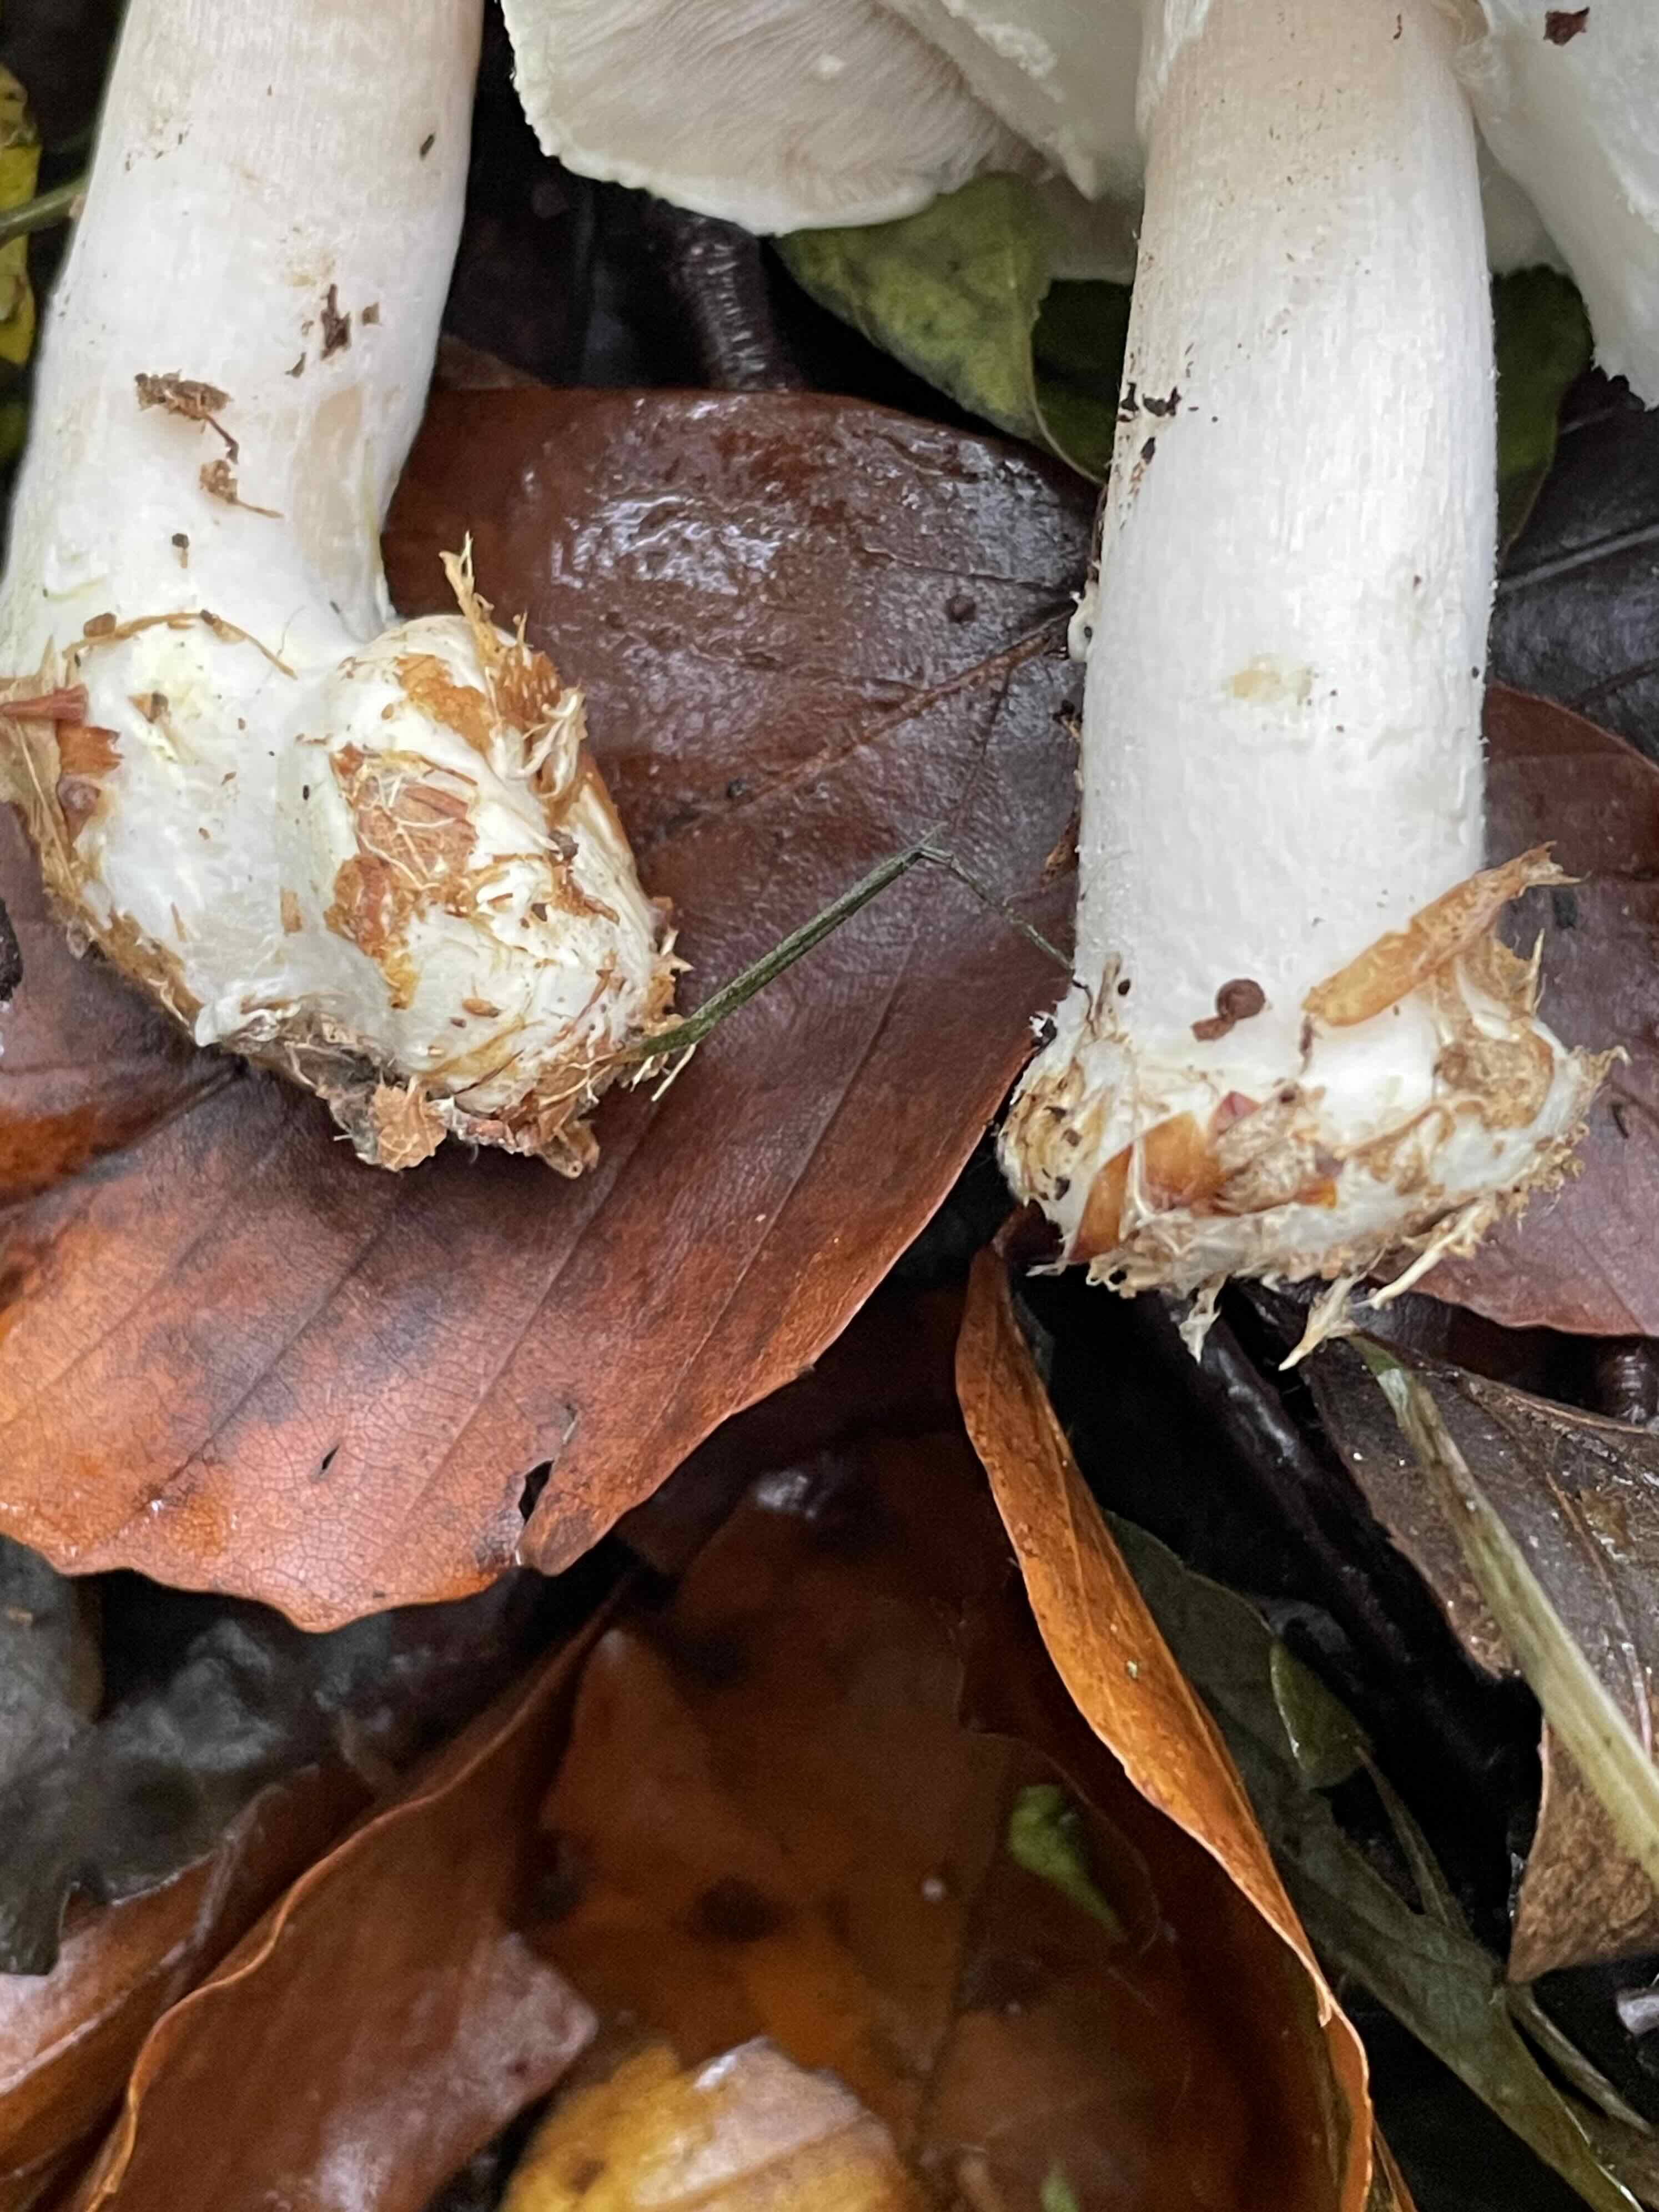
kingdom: Fungi
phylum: Basidiomycota
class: Agaricomycetes
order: Agaricales
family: Agaricaceae
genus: Agaricus
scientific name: Agaricus sylvicola
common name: skiveknoldet champignon
